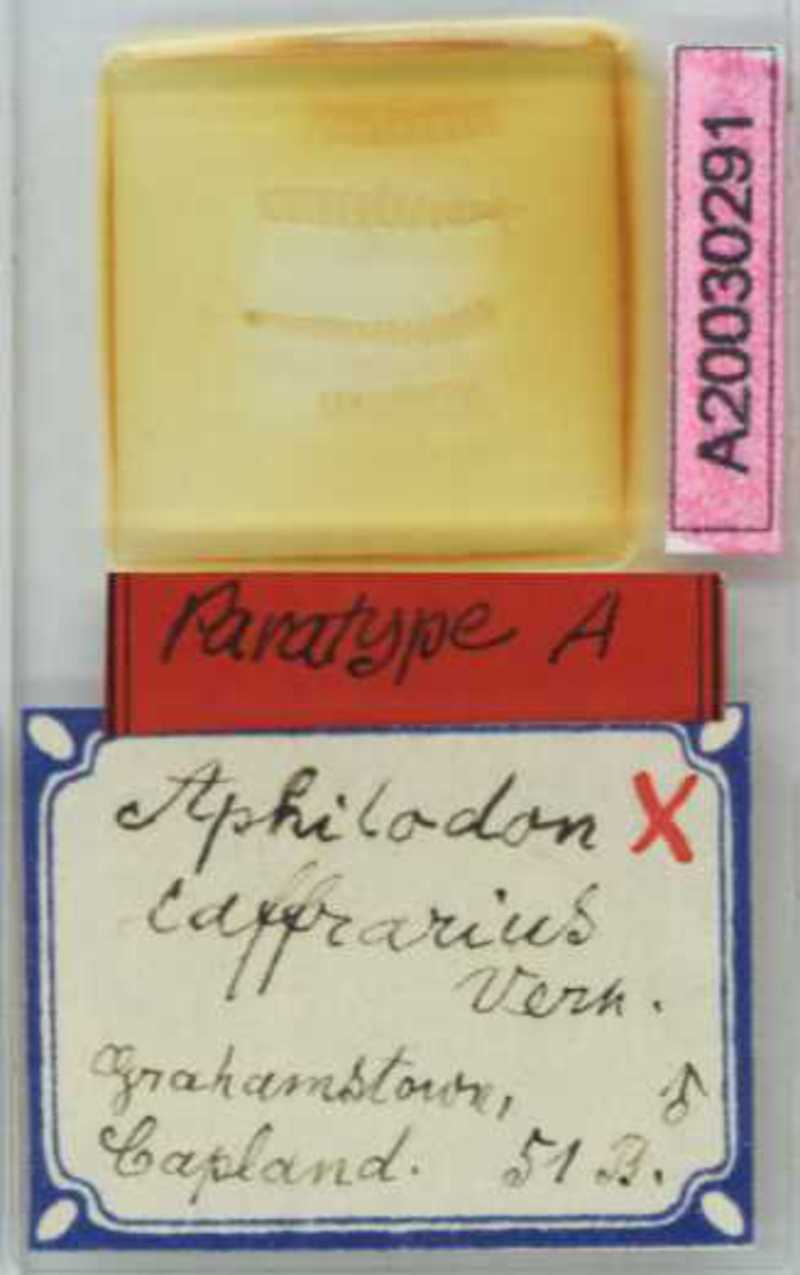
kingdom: Animalia
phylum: Arthropoda
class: Chilopoda
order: Geophilomorpha
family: Aphilodontidae
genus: Aphilodon
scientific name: Aphilodon caffrarius
